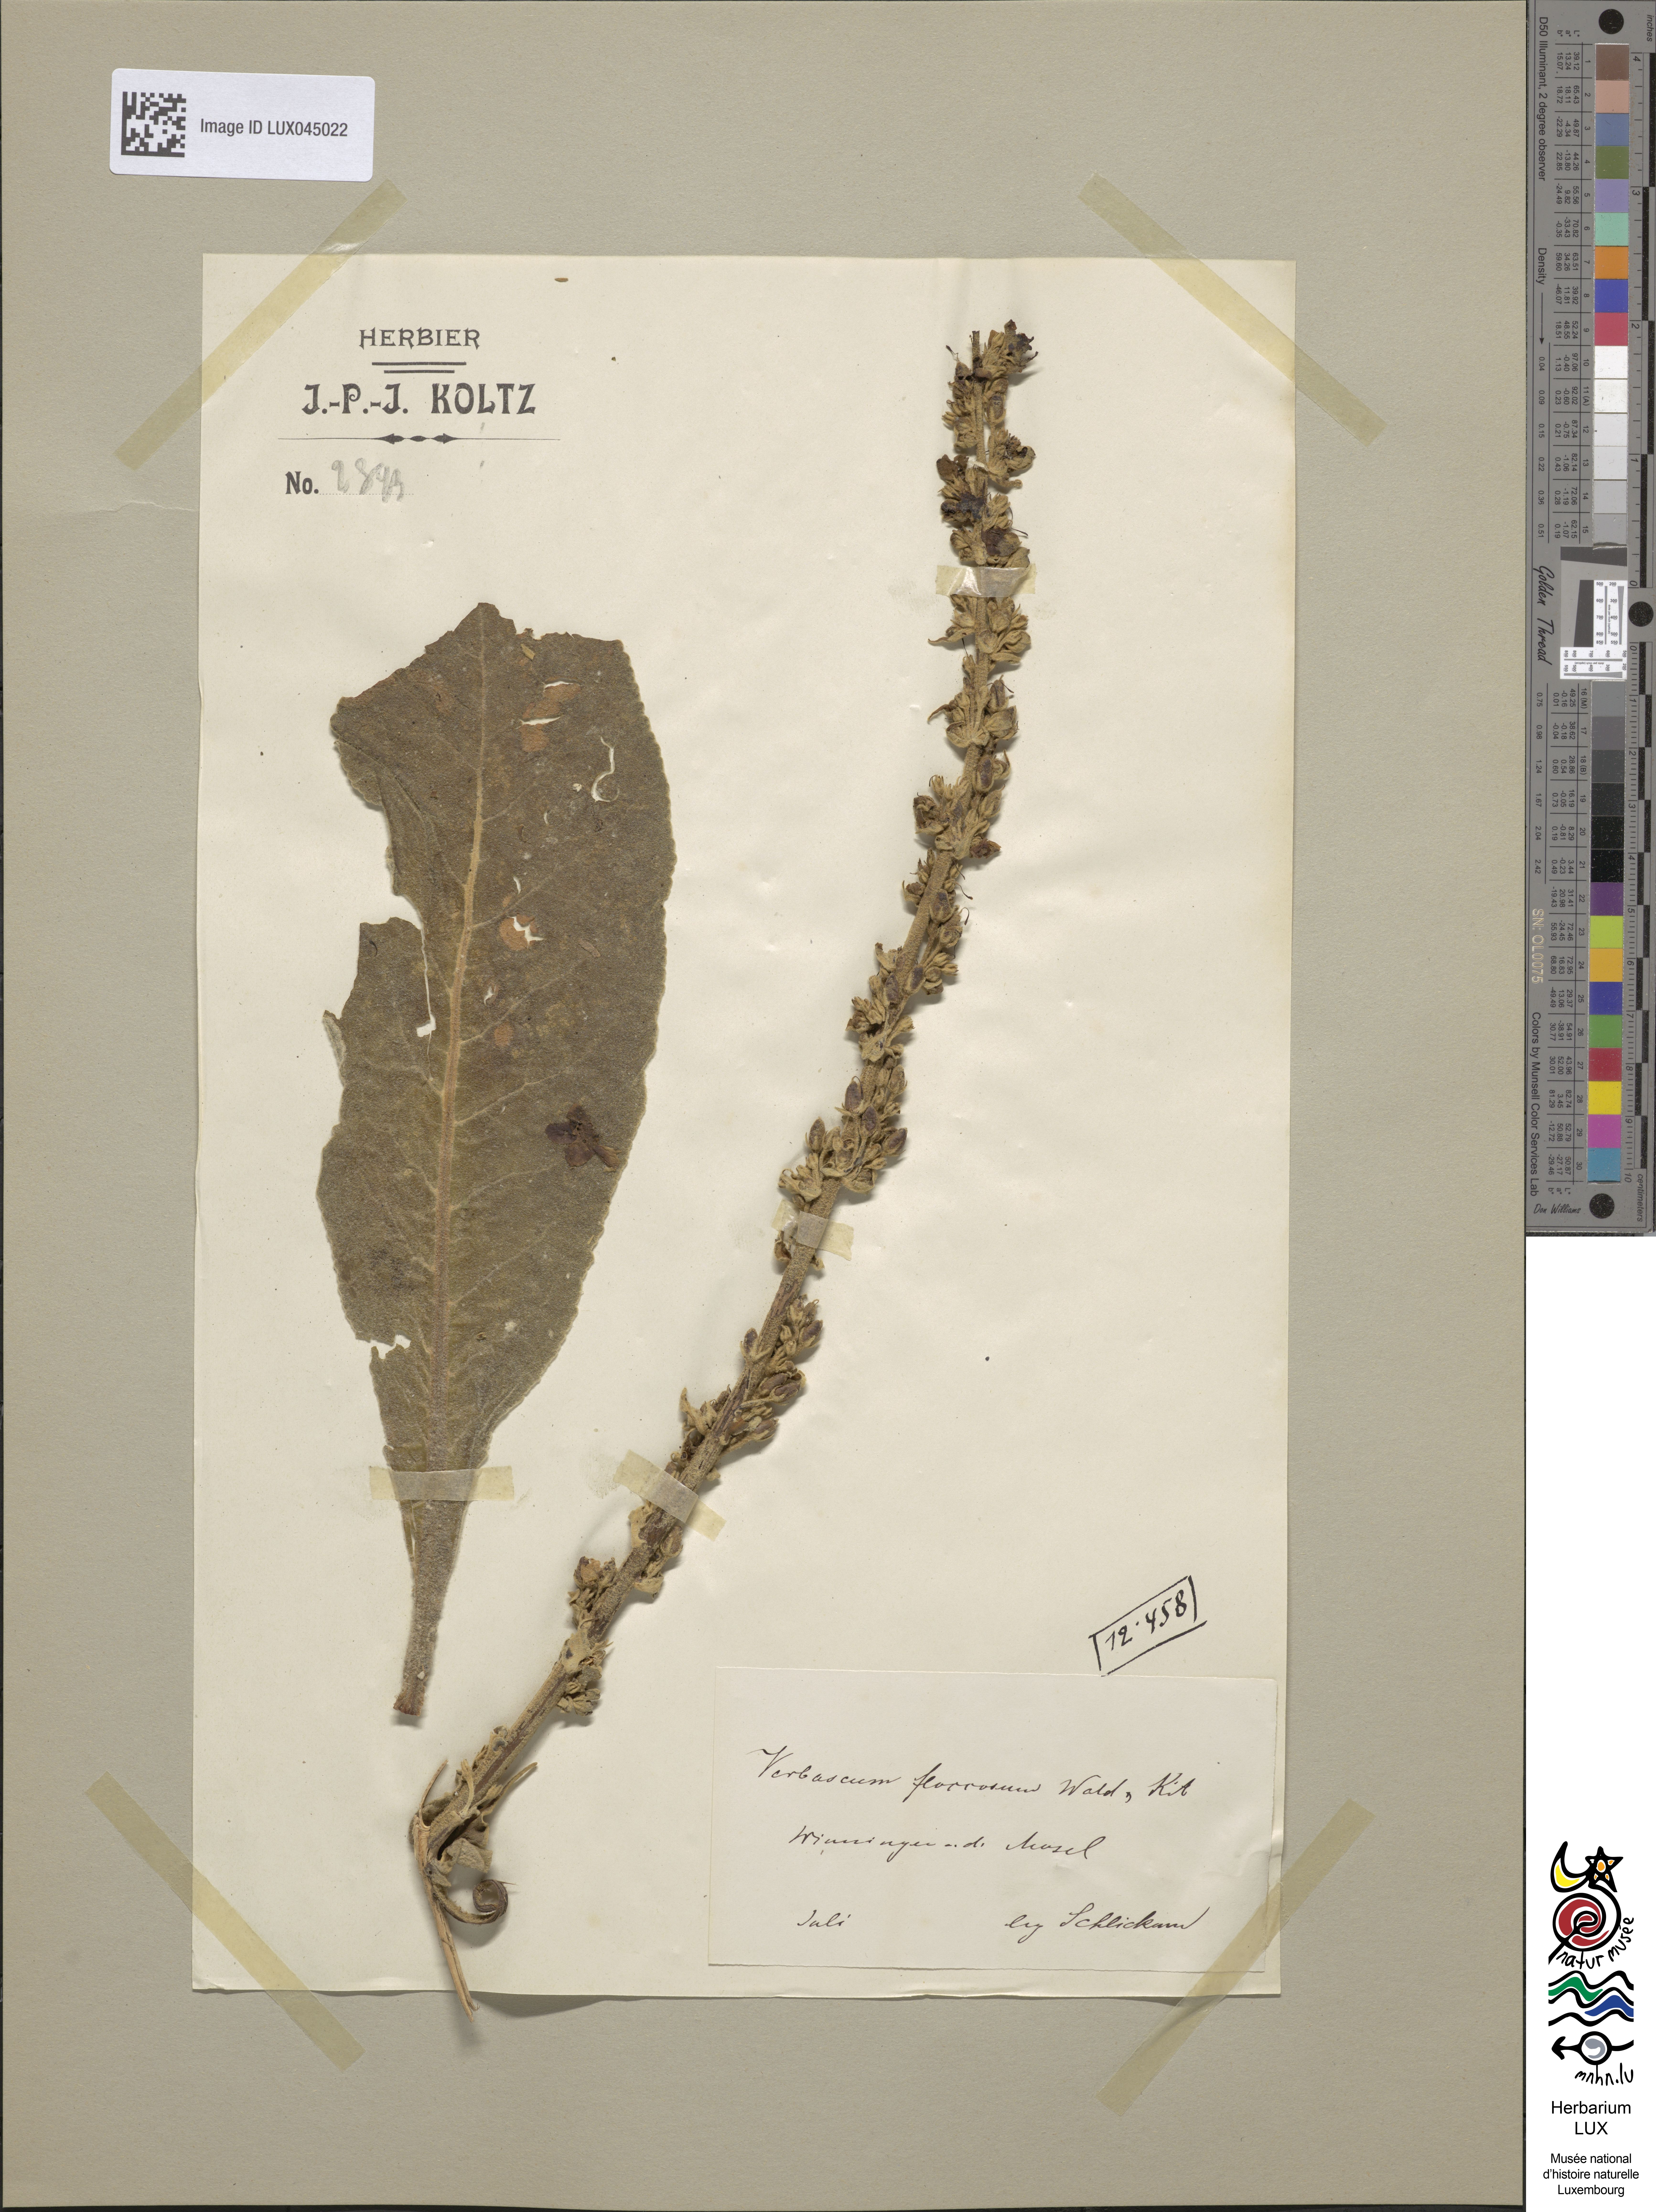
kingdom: Plantae
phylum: Tracheophyta
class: Magnoliopsida
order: Lamiales
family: Scrophulariaceae
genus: Verbascum
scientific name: Verbascum pulverulentum
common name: Broad-leaf mullein
